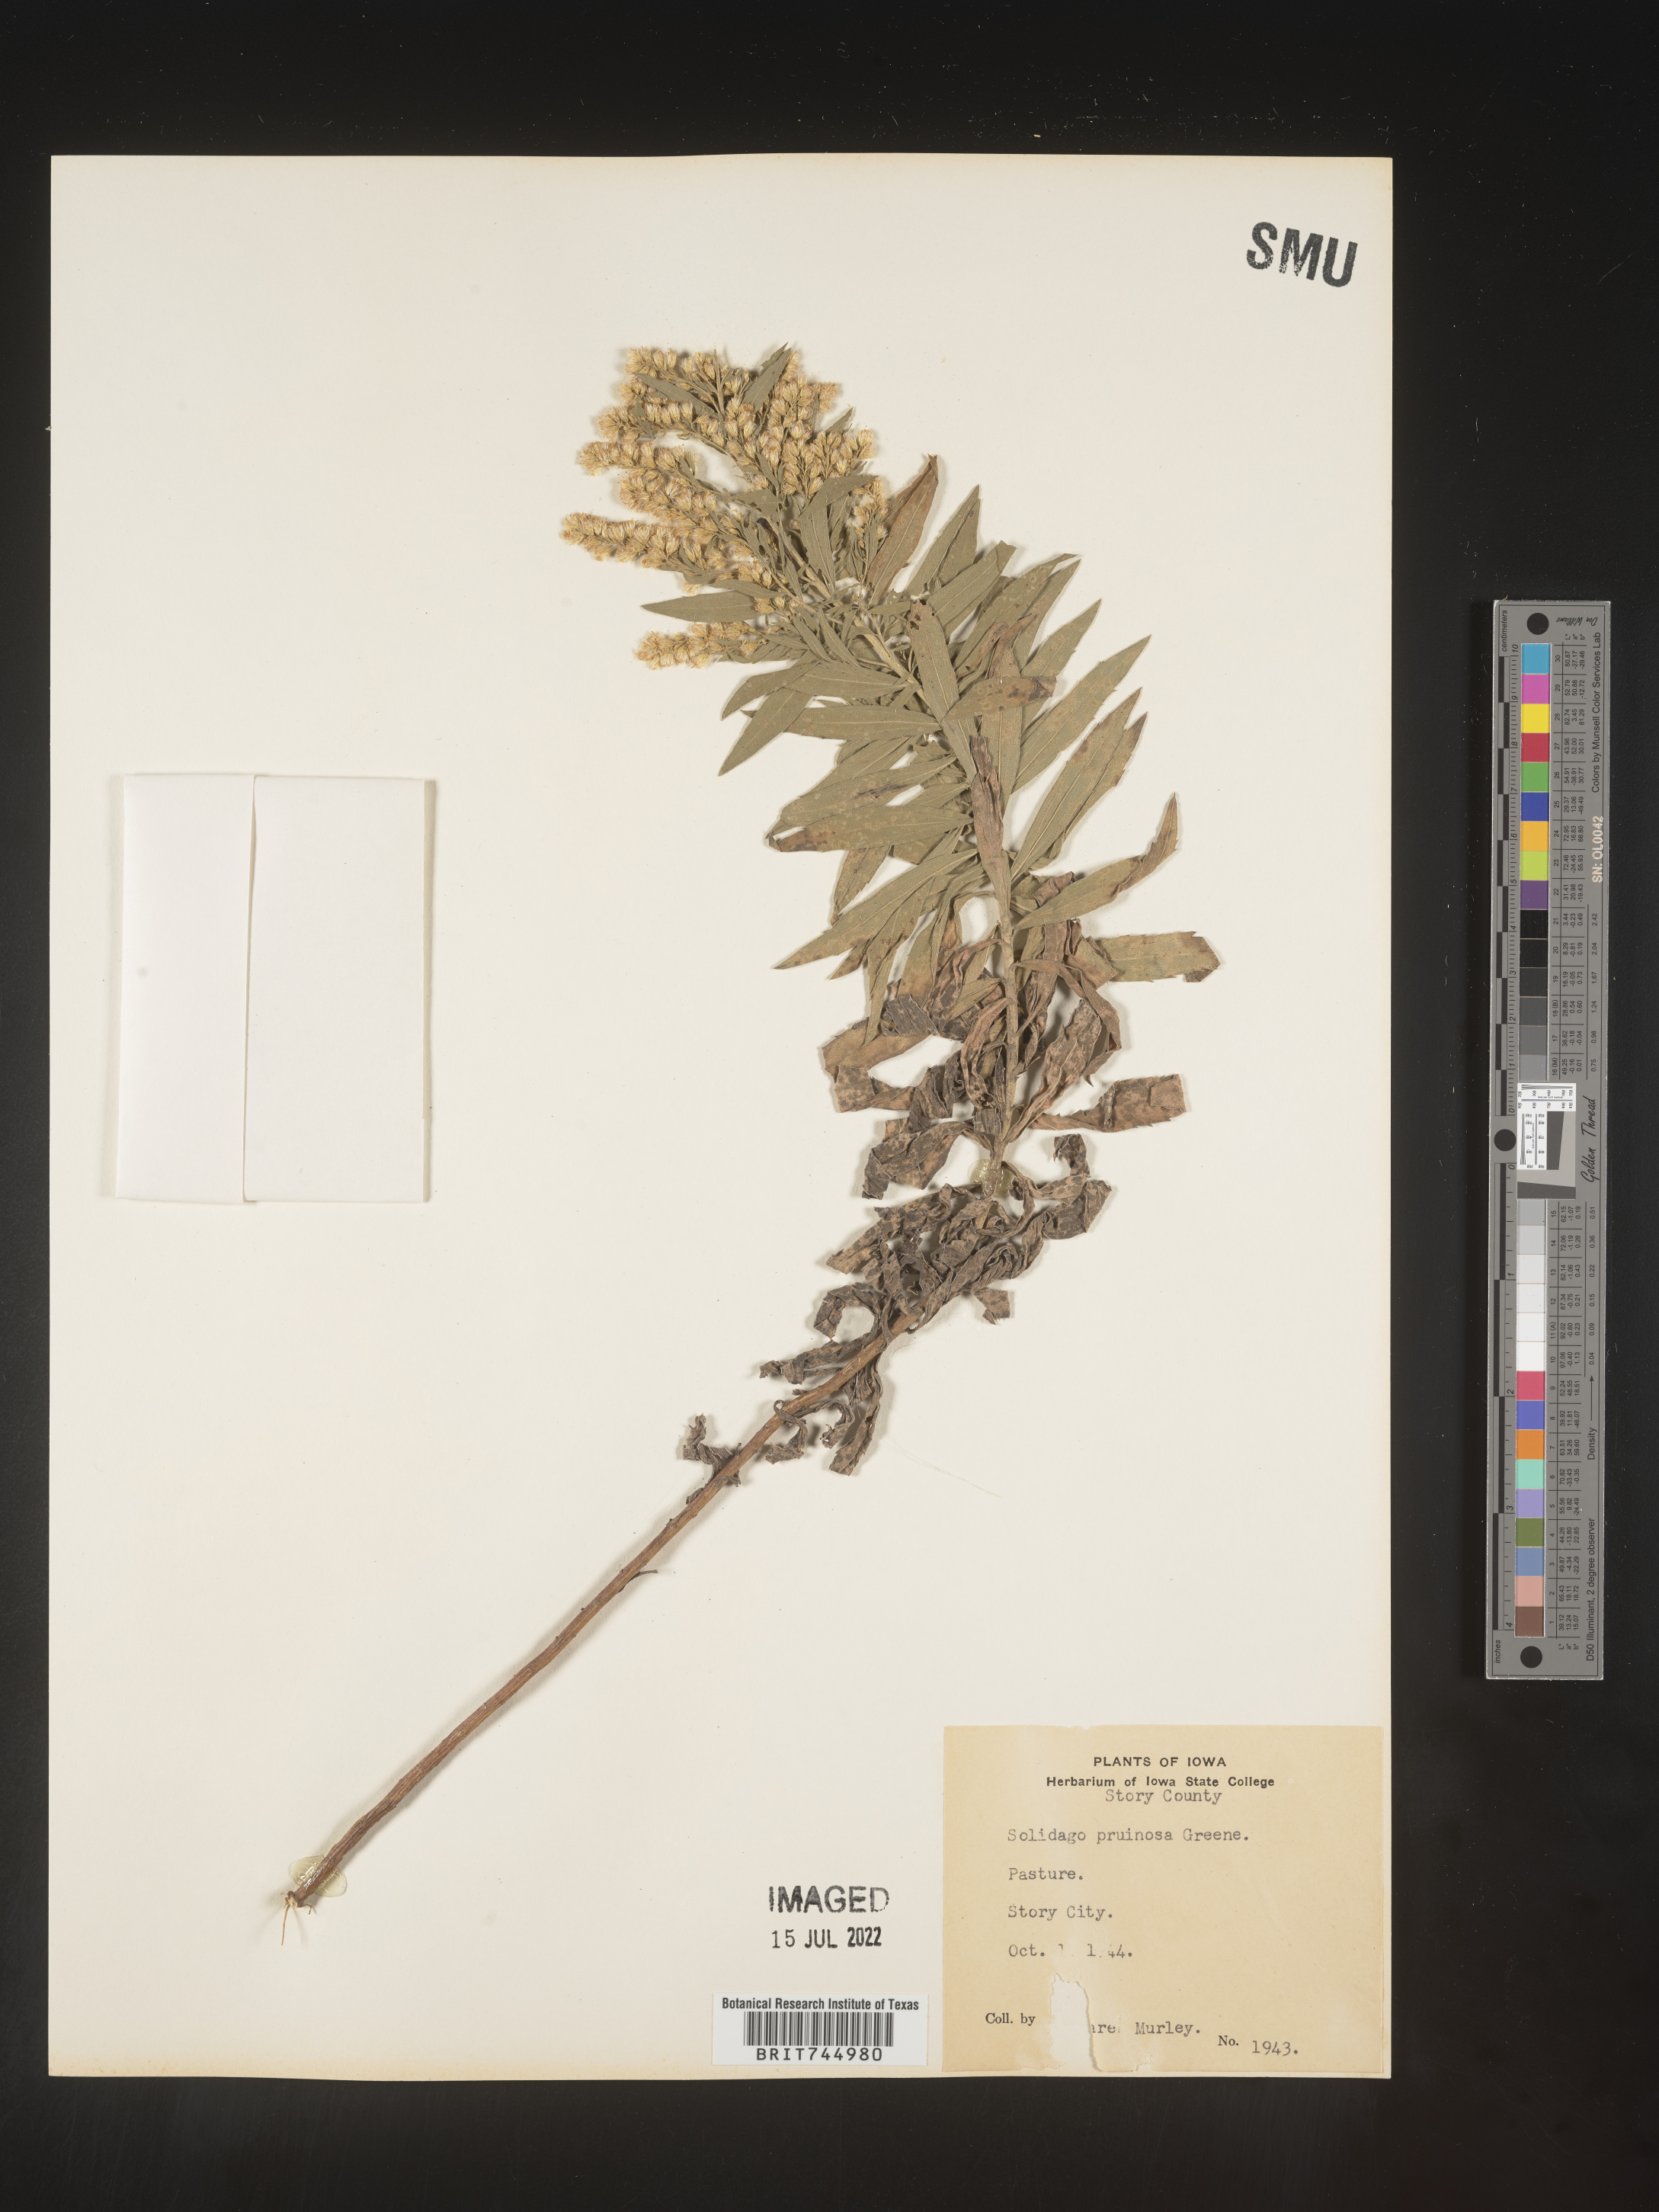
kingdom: Plantae
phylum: Tracheophyta
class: Magnoliopsida
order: Asterales
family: Asteraceae
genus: Solidago
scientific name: Solidago canadensis
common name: Canada goldenrod
